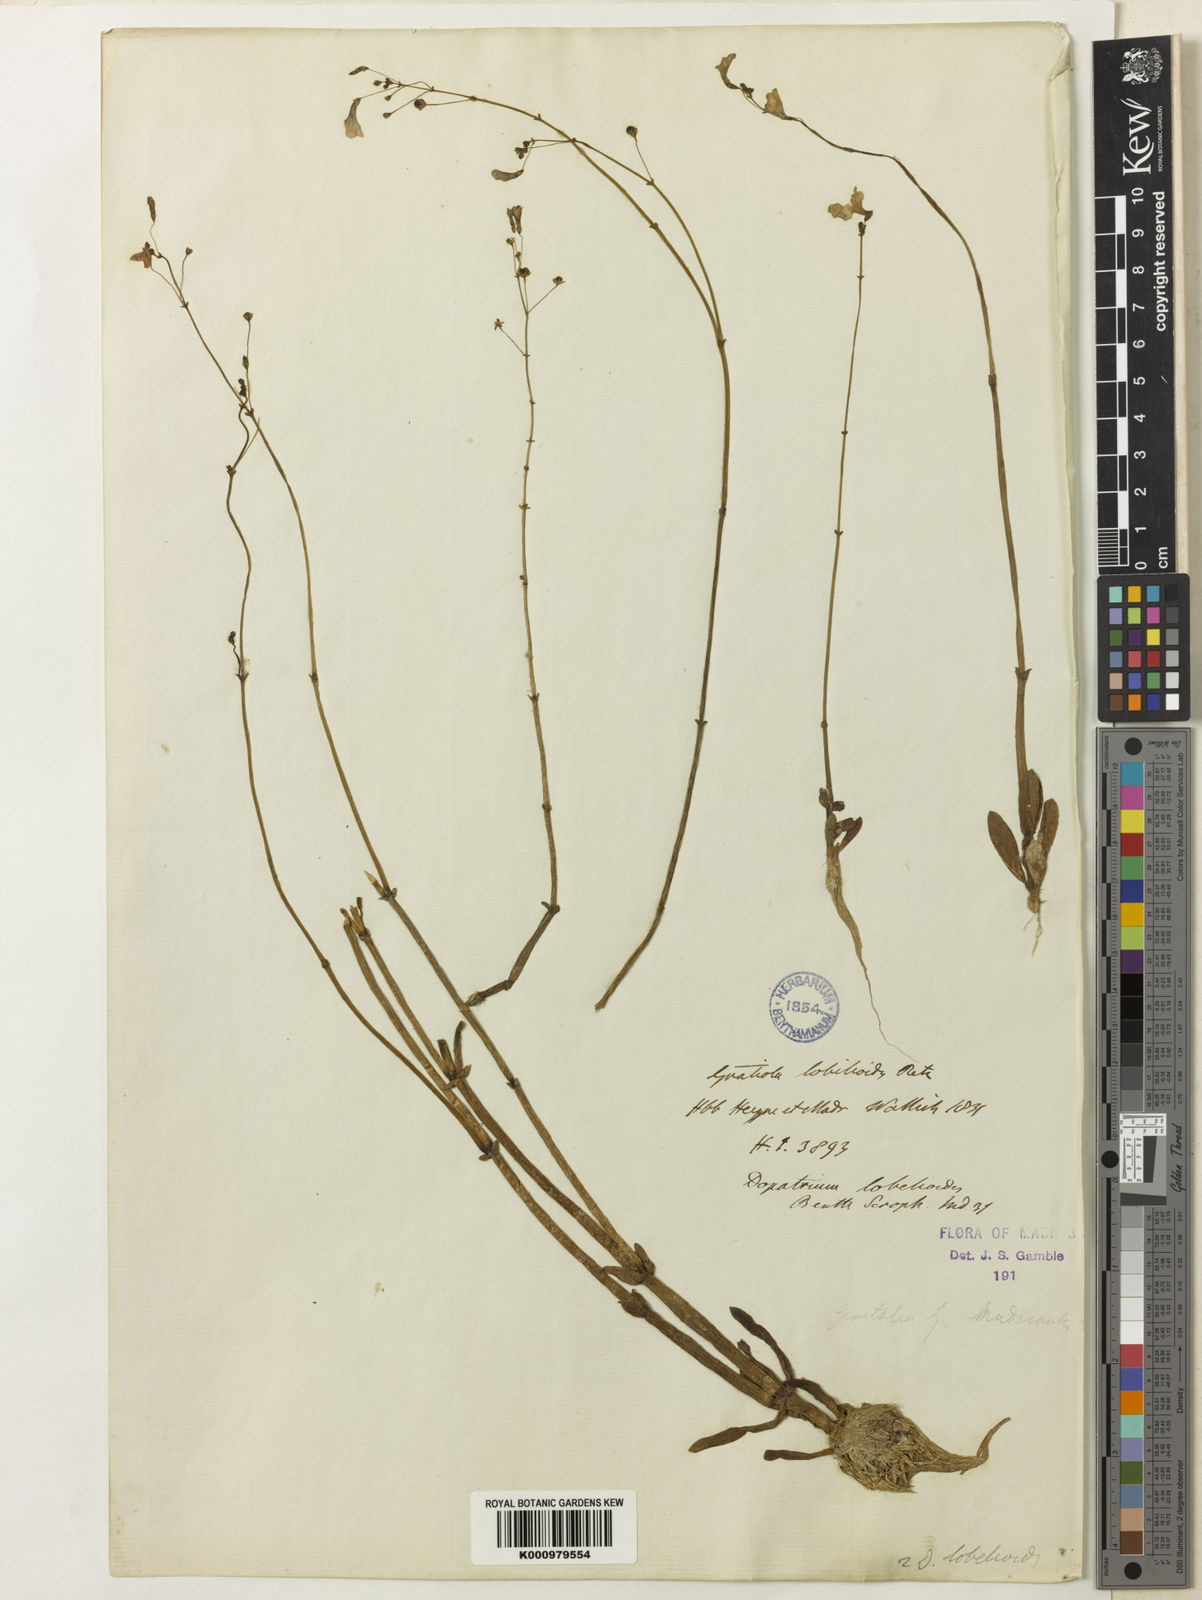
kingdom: Plantae
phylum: Tracheophyta
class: Magnoliopsida
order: Lamiales
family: Plantaginaceae
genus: Dopatrium
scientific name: Dopatrium lobelioides
